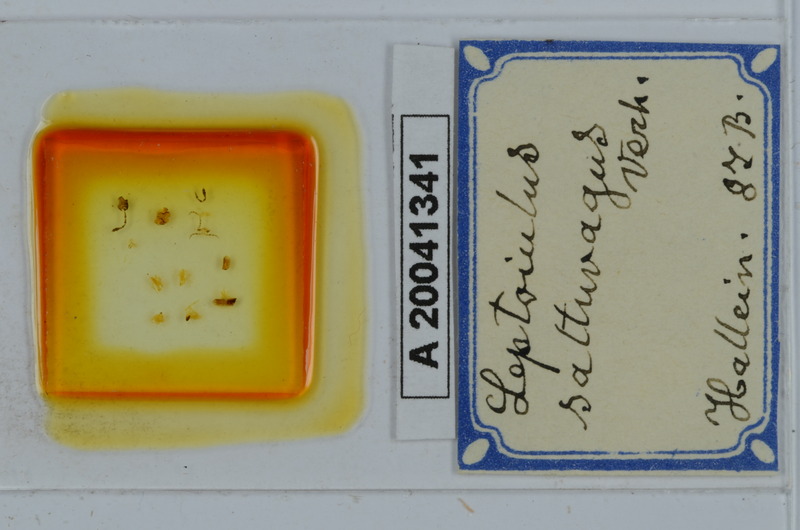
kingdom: Animalia
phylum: Arthropoda
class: Diplopoda
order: Julida
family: Julidae
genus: Leptoiulus
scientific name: Leptoiulus saltuvagus
